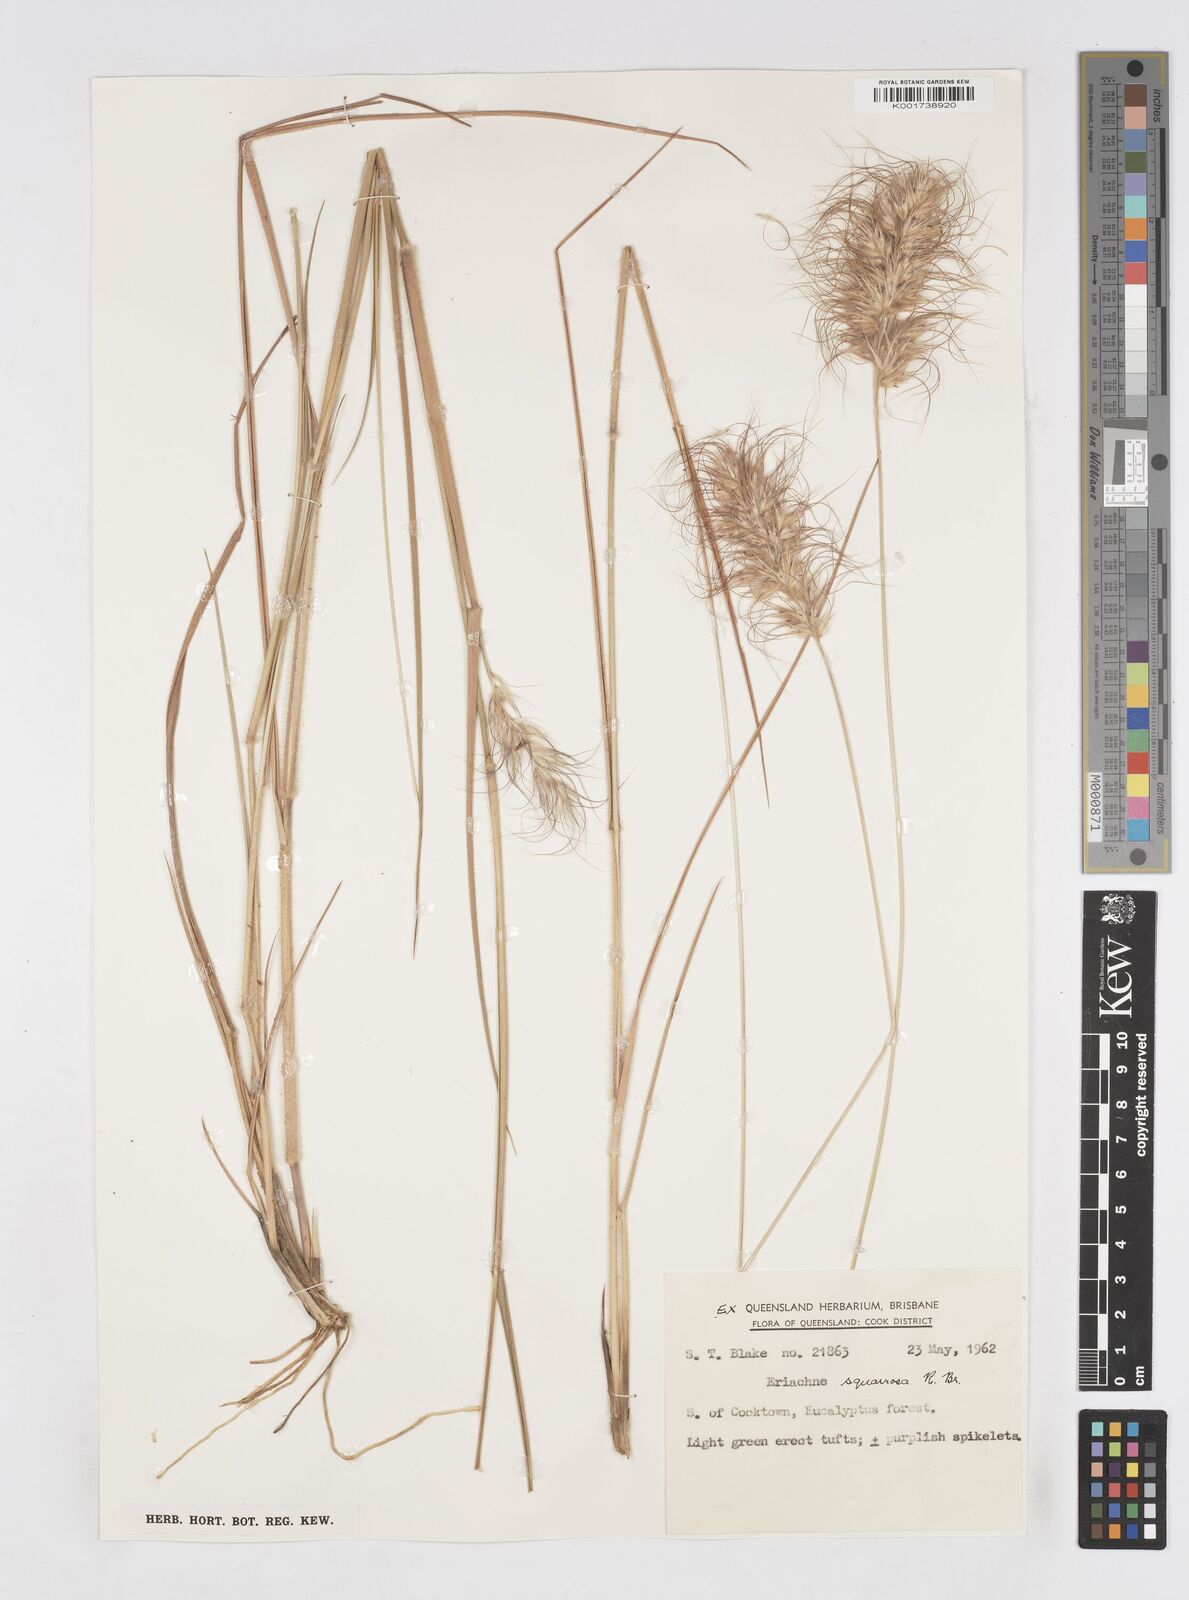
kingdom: Plantae
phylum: Tracheophyta
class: Liliopsida
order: Poales
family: Poaceae
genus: Eriachne
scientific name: Eriachne squarrosa
